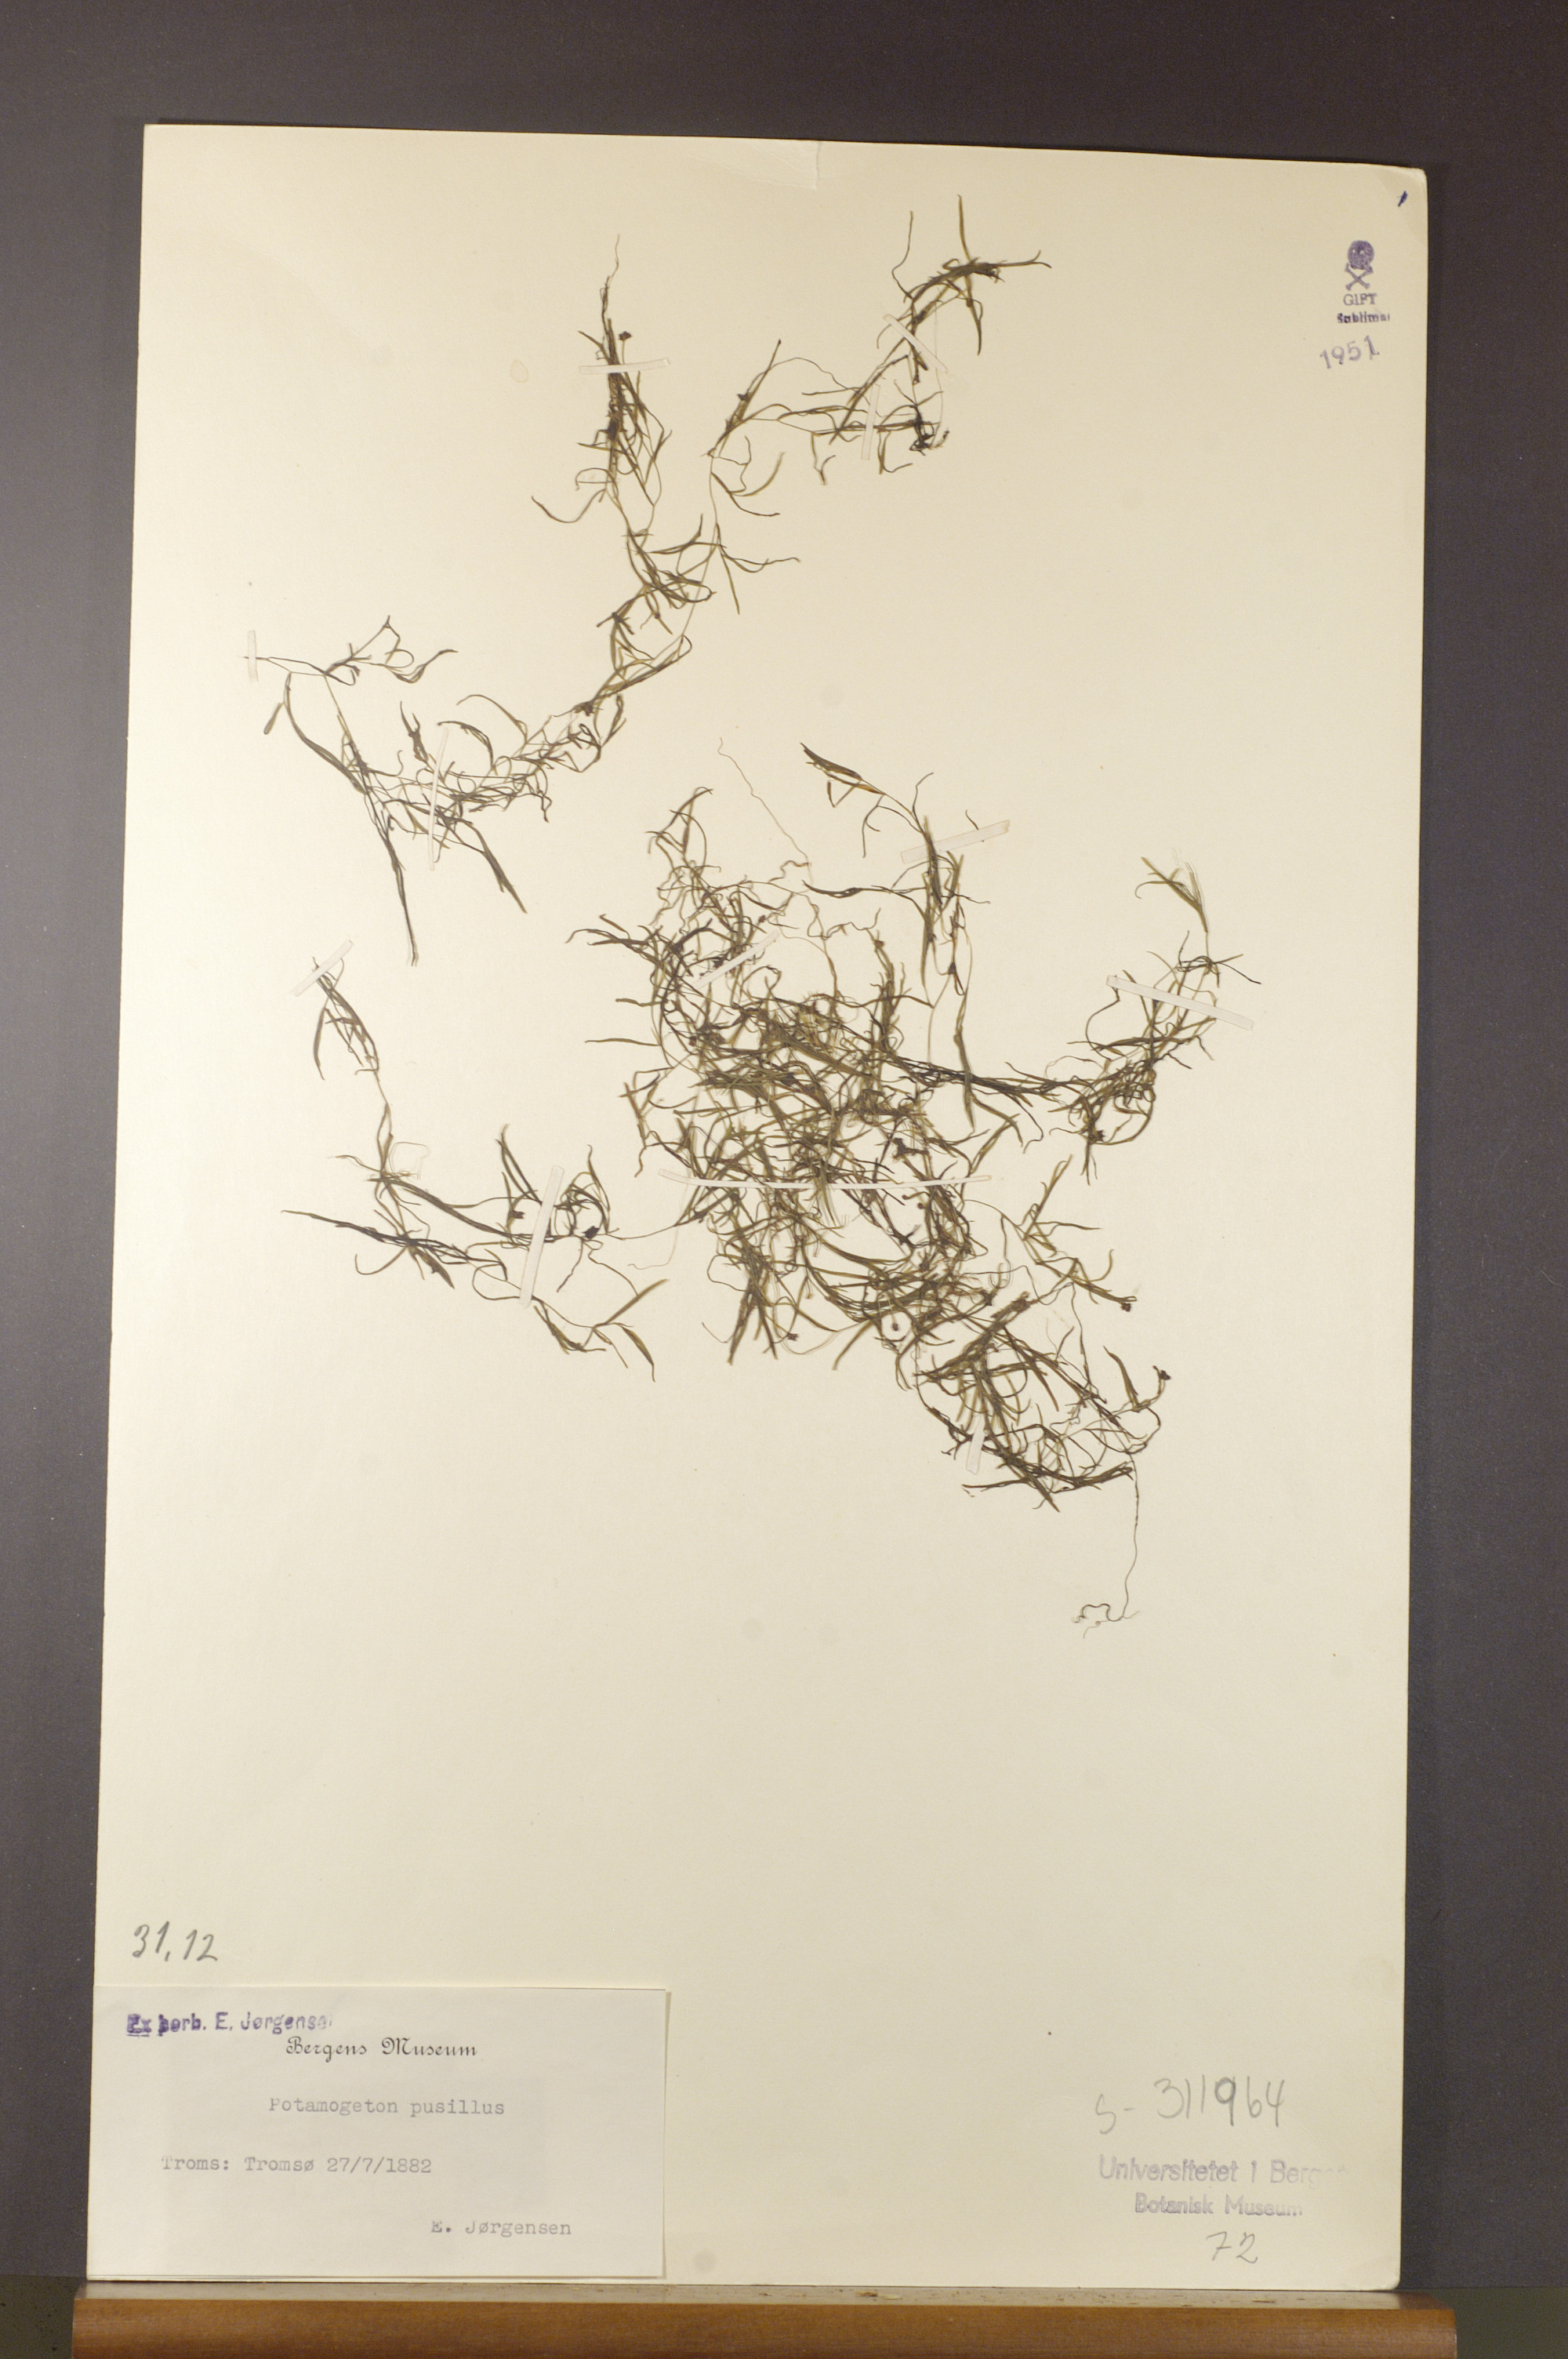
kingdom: Plantae
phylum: Tracheophyta
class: Liliopsida
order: Alismatales
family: Potamogetonaceae
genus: Potamogeton
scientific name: Potamogeton berchtoldii
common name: Small pondweed
